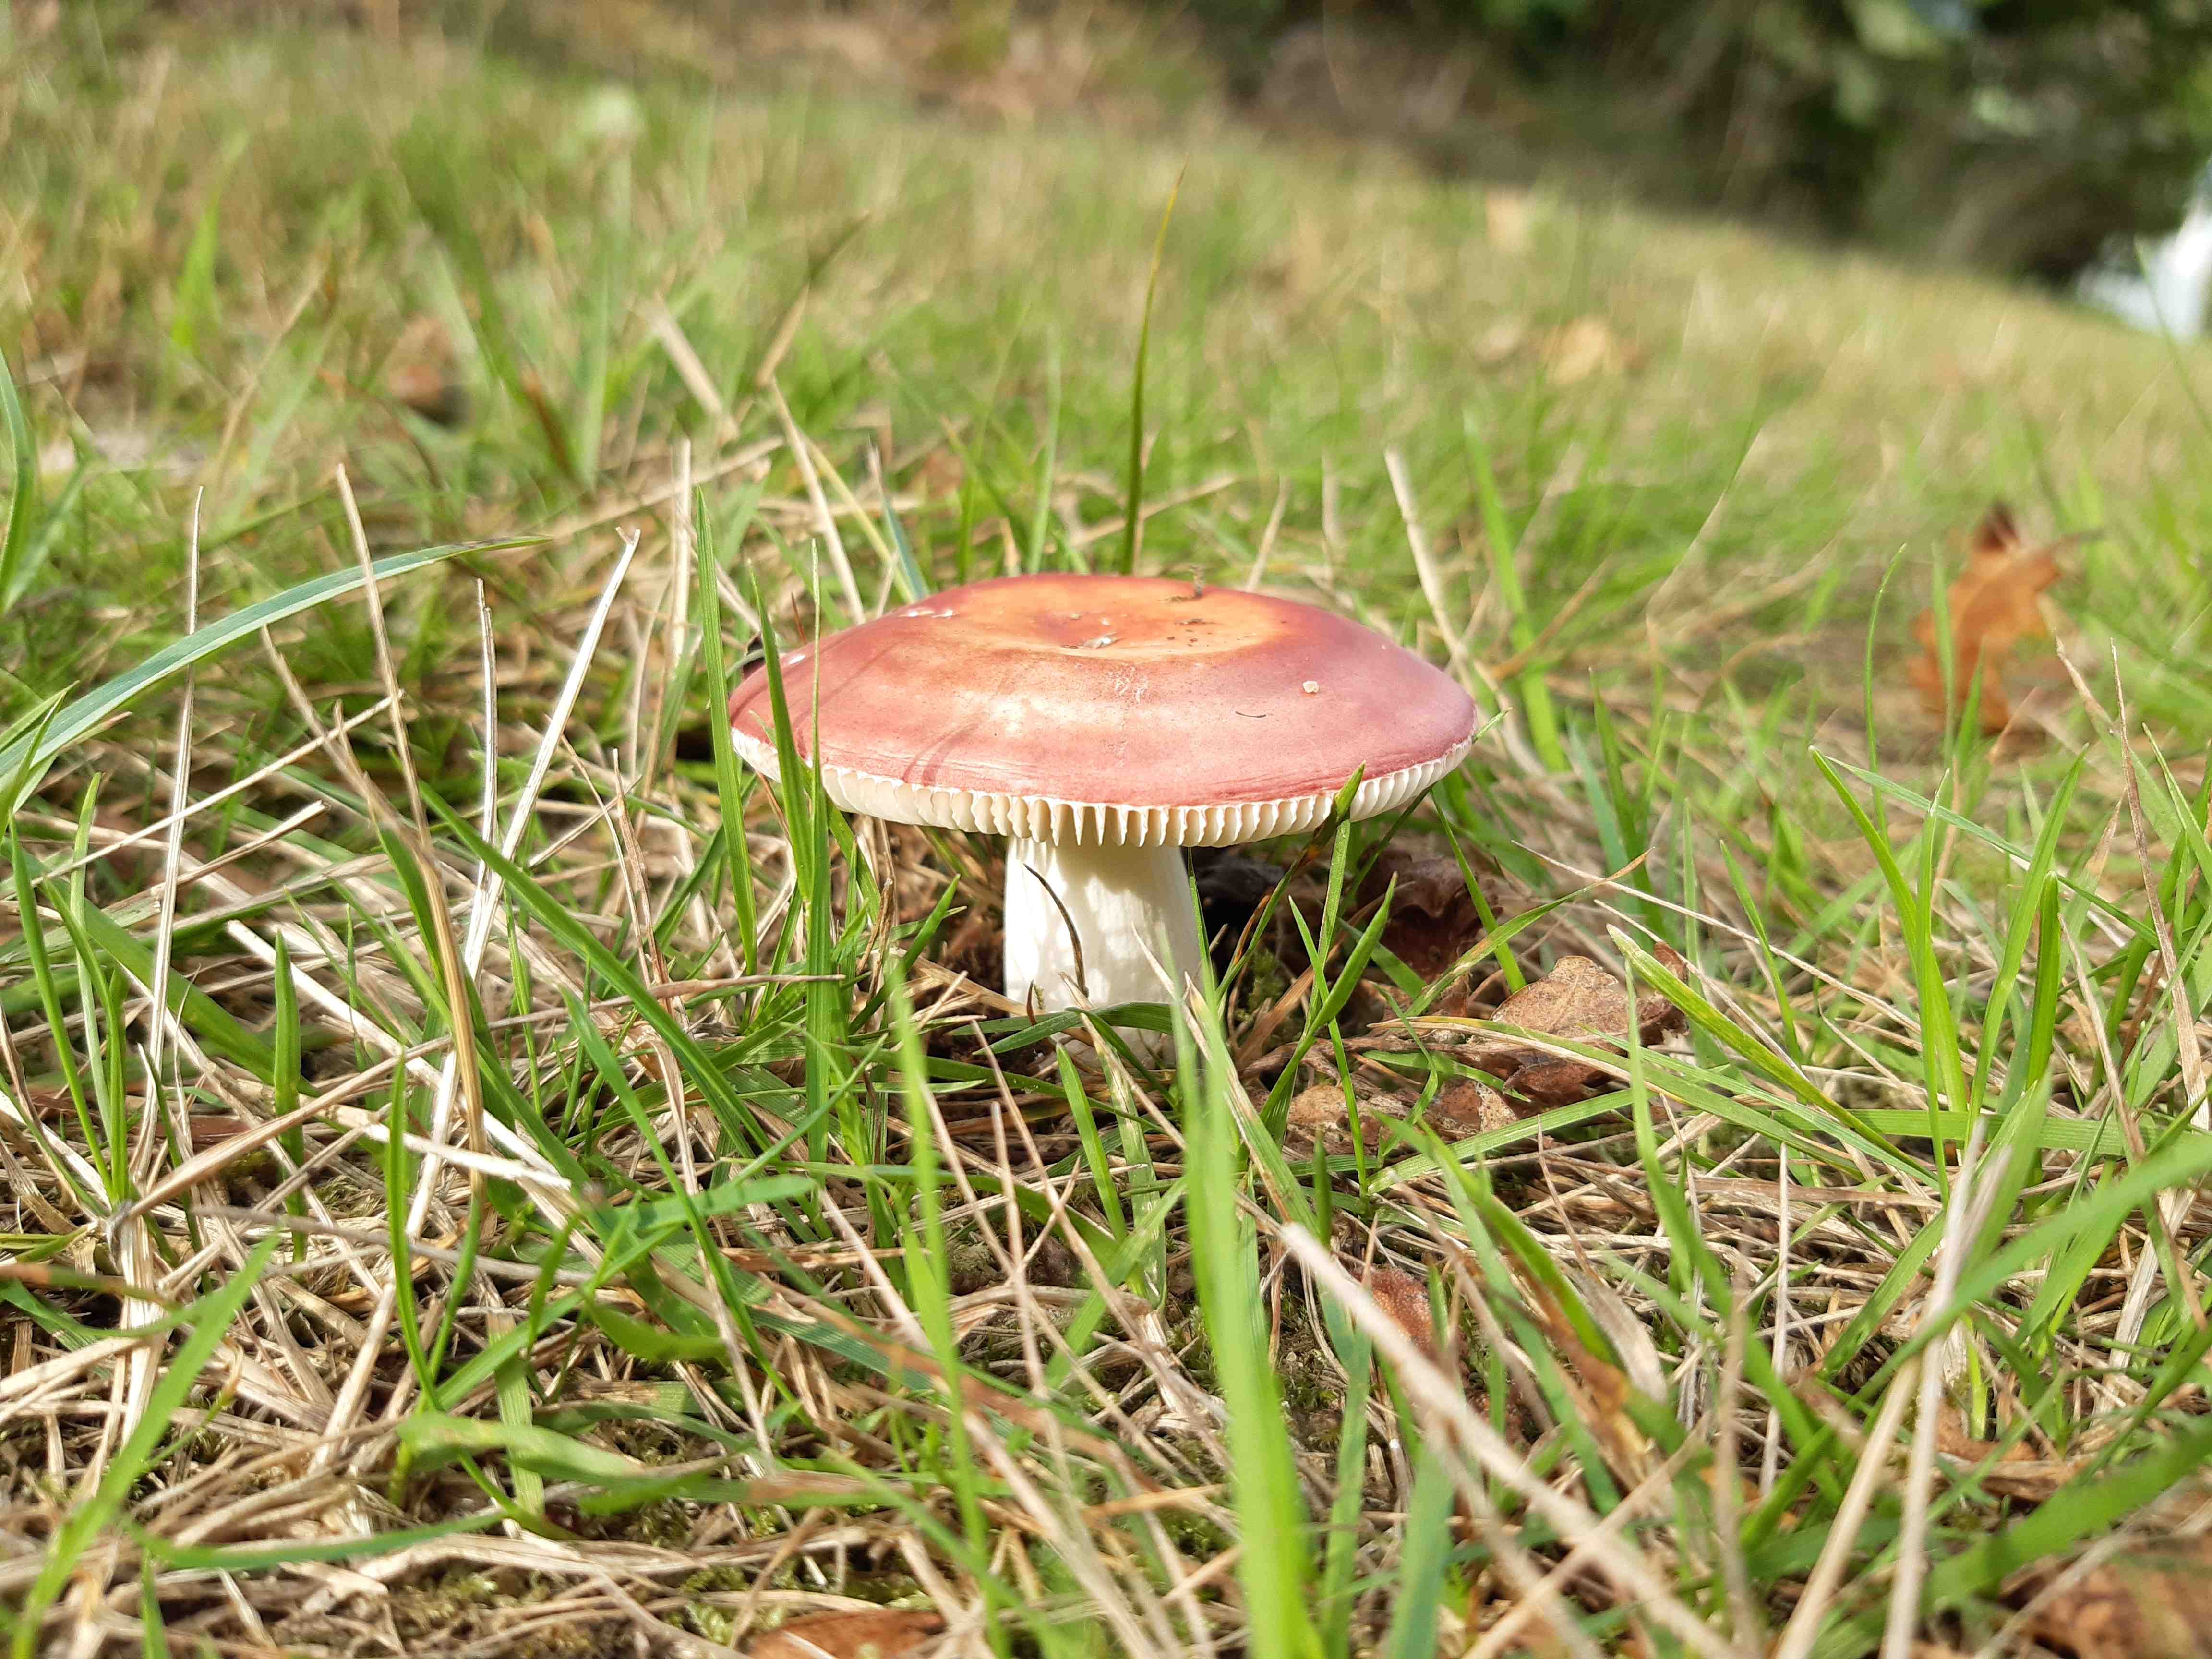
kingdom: Fungi
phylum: Basidiomycota
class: Agaricomycetes
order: Russulales
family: Russulaceae
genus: Russula
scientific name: Russula
